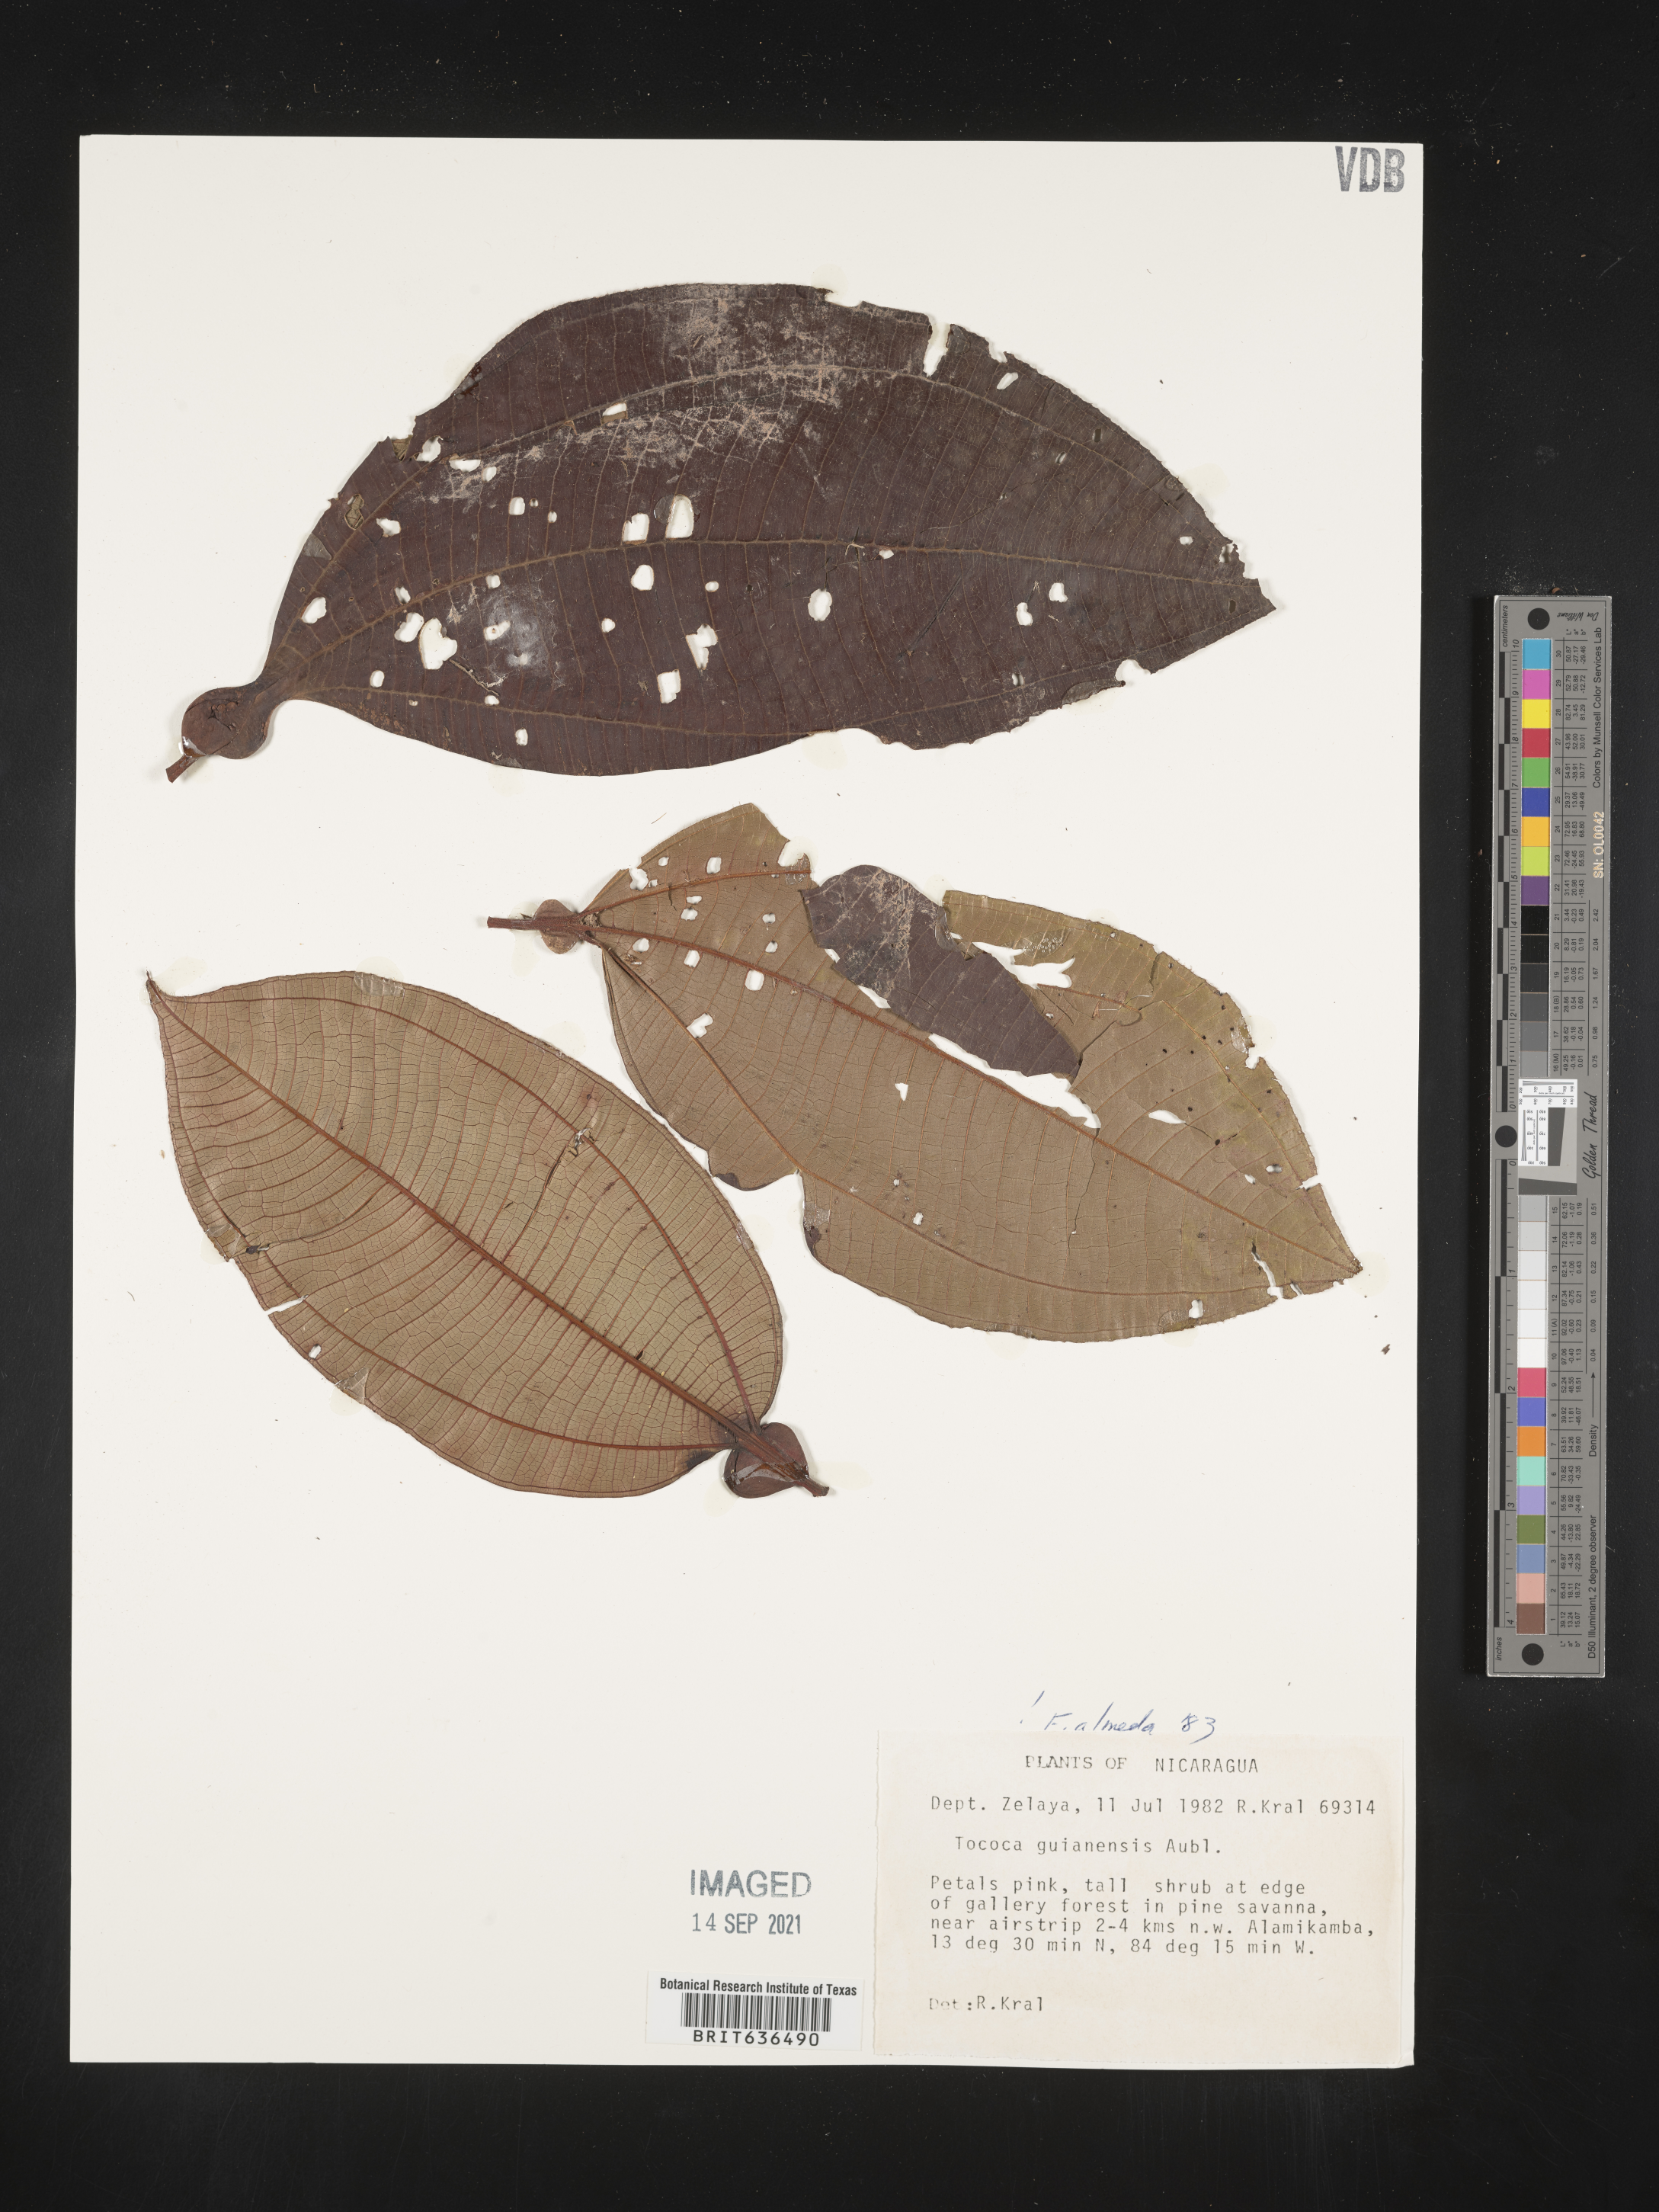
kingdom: Plantae
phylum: Tracheophyta
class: Magnoliopsida
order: Myrtales
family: Melastomataceae
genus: Tibouchina
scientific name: Tibouchina
